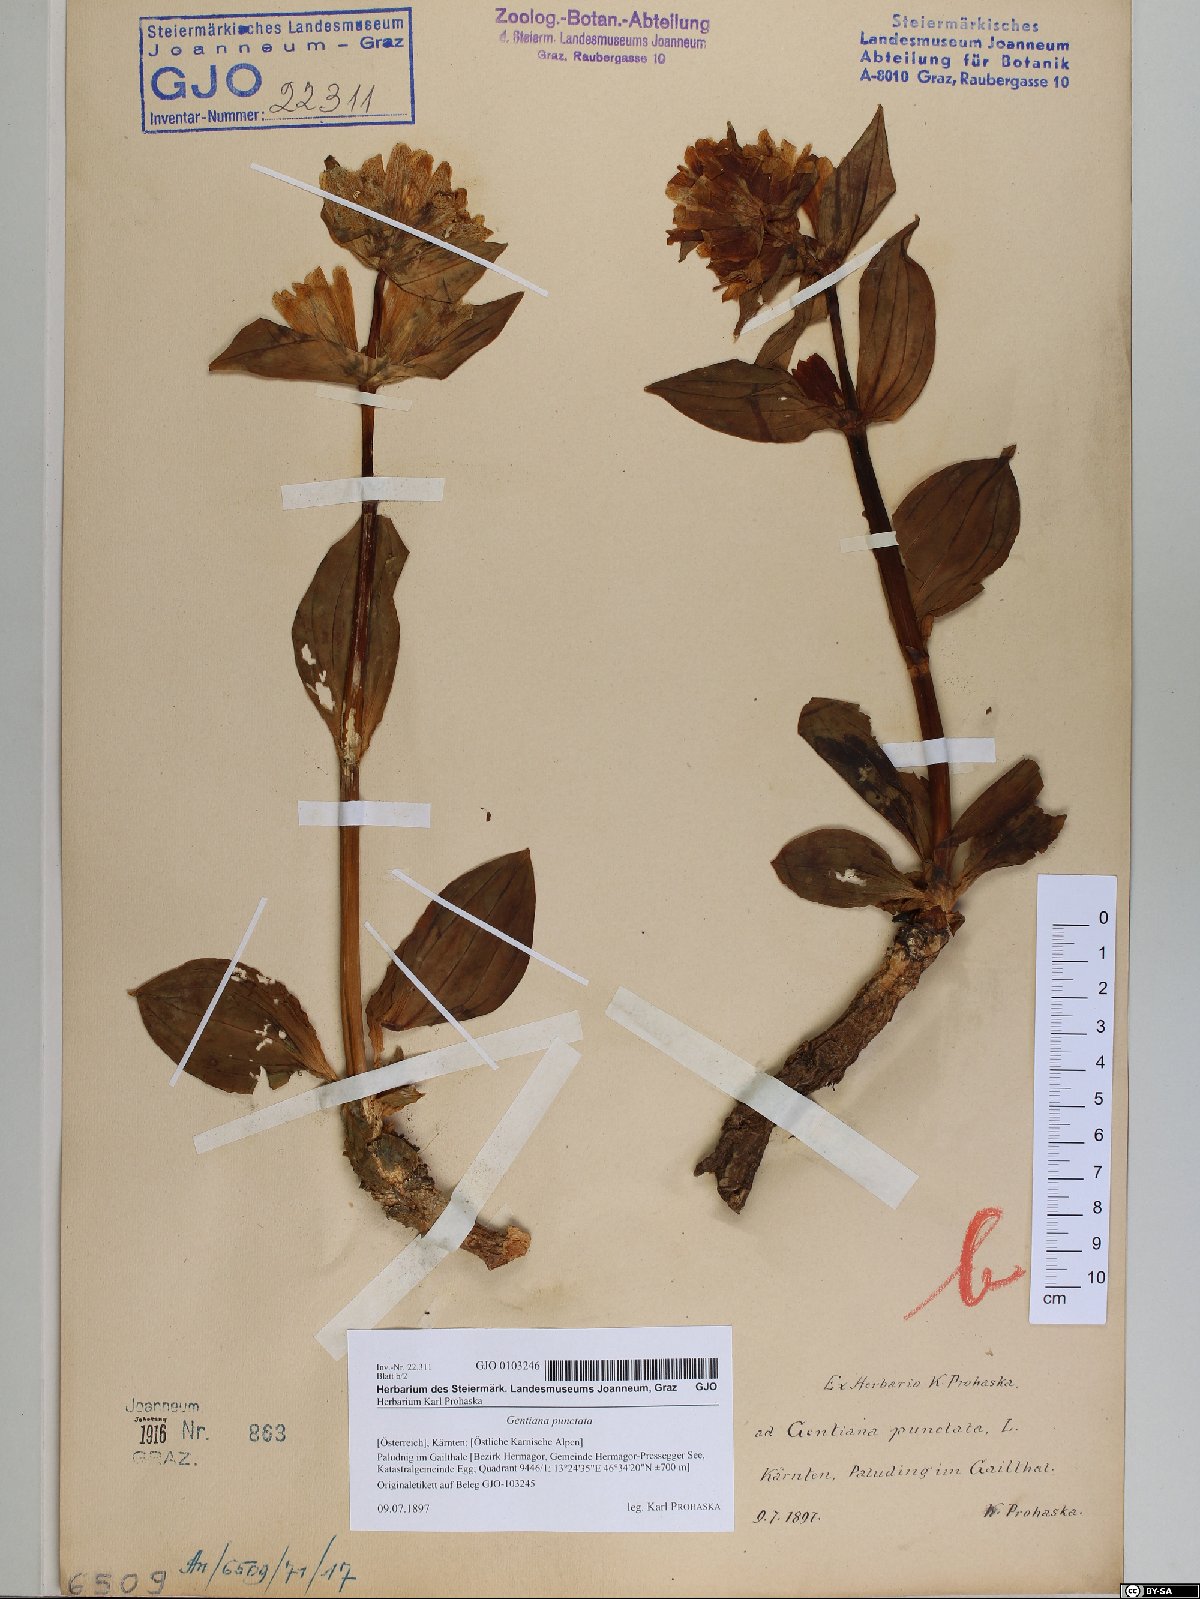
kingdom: Plantae
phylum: Tracheophyta
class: Magnoliopsida
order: Gentianales
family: Gentianaceae
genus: Gentiana
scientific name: Gentiana punctata
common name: Spotted gentian
